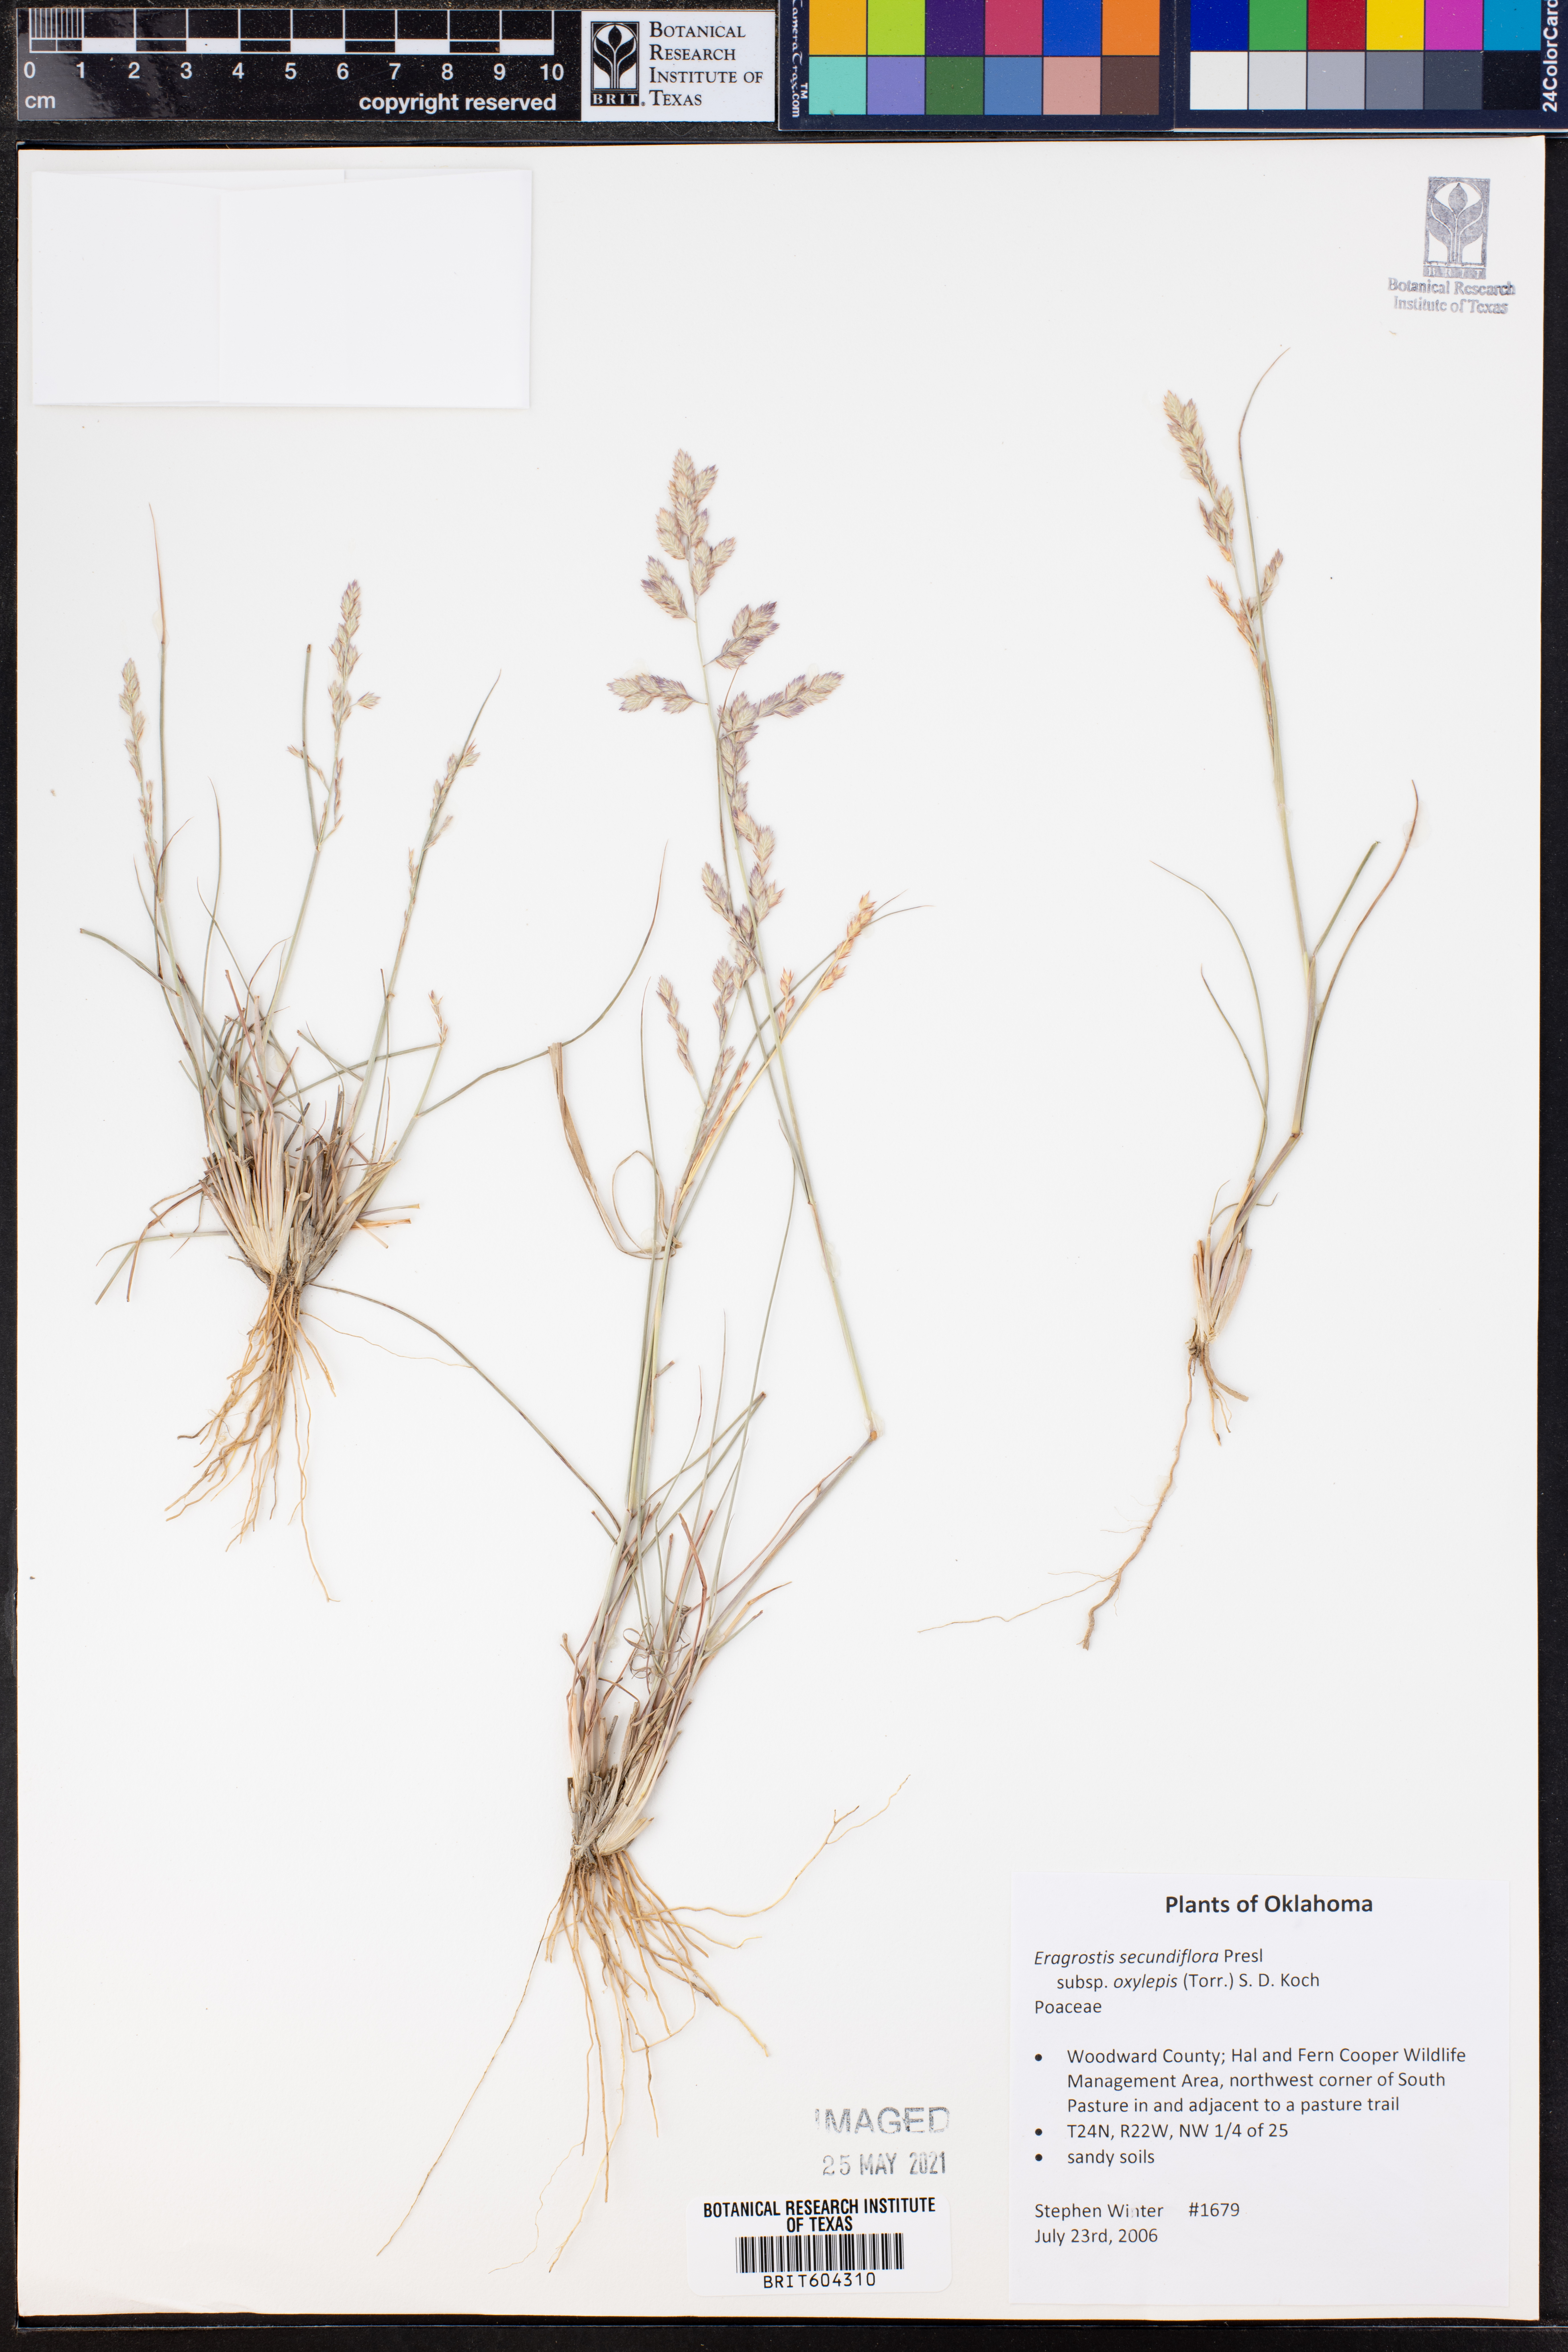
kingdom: Plantae
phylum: Tracheophyta
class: Liliopsida
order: Poales
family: Poaceae
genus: Eragrostis
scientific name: Eragrostis secundiflora
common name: Red love grass
